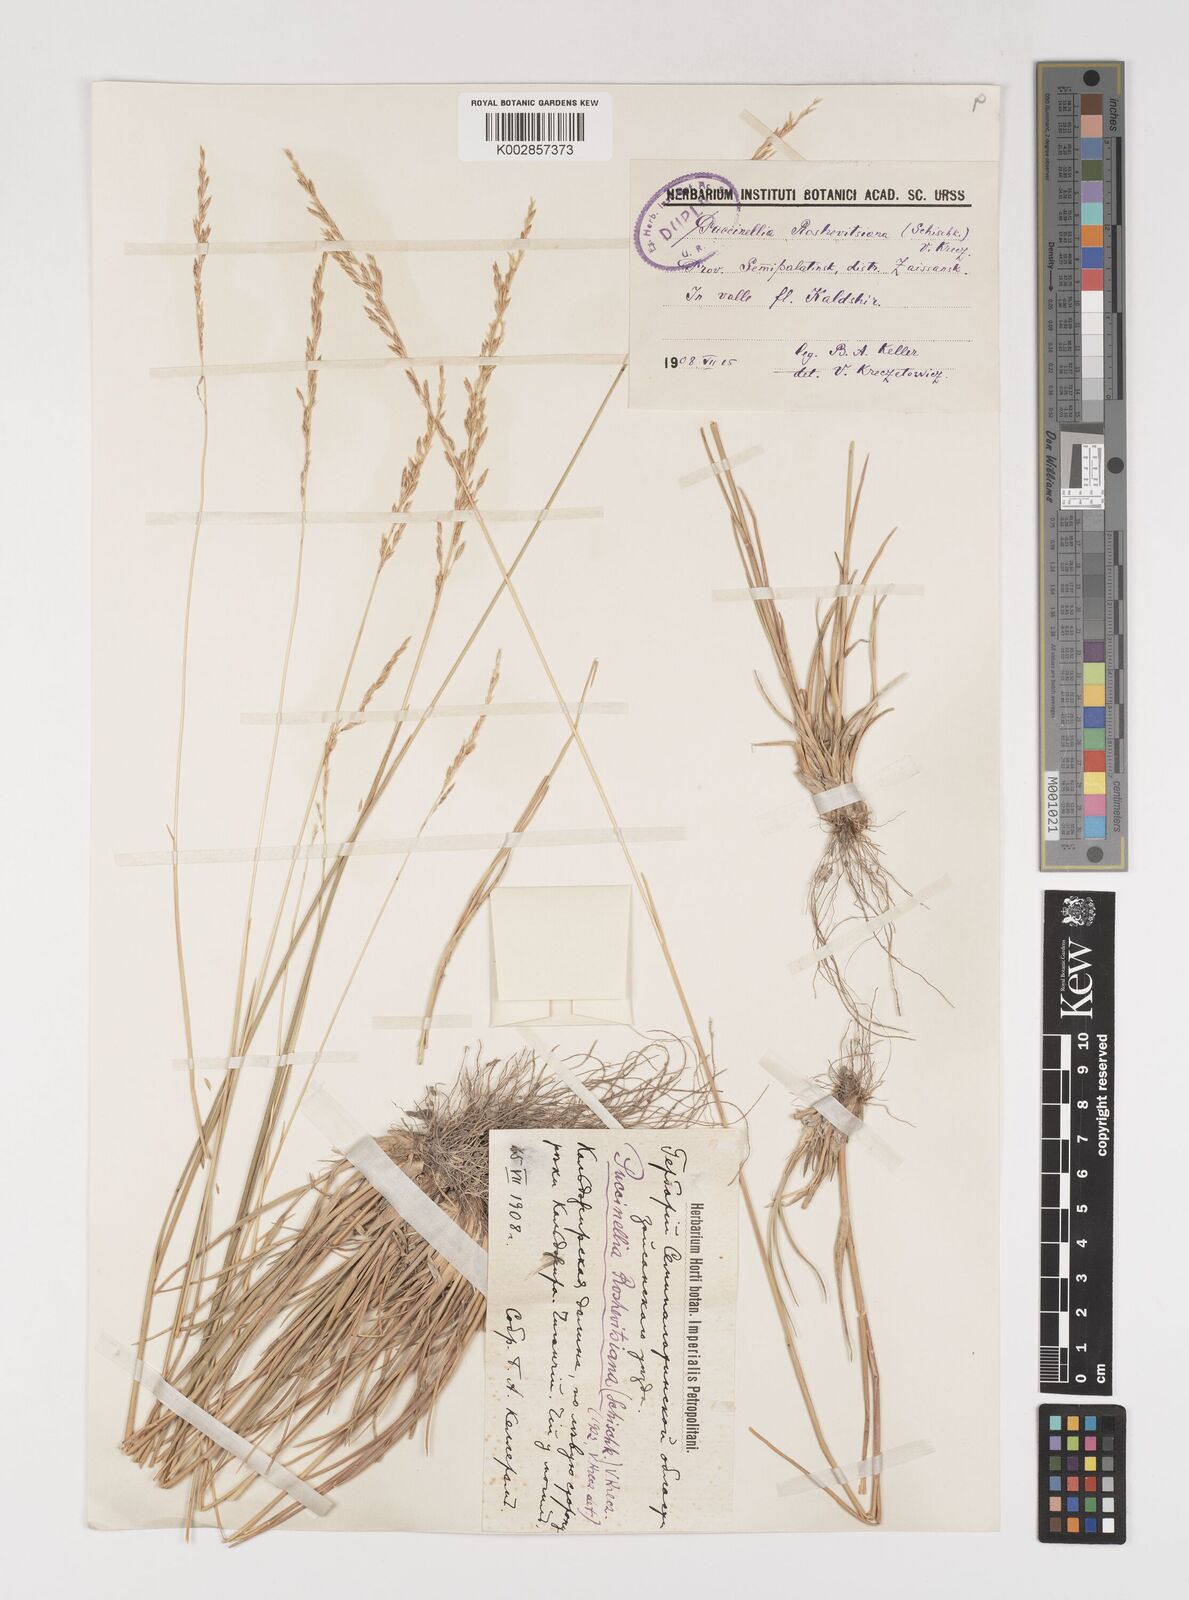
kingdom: Plantae
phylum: Tracheophyta
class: Liliopsida
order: Poales
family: Poaceae
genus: Puccinellia
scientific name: Puccinellia roshevitsiana
